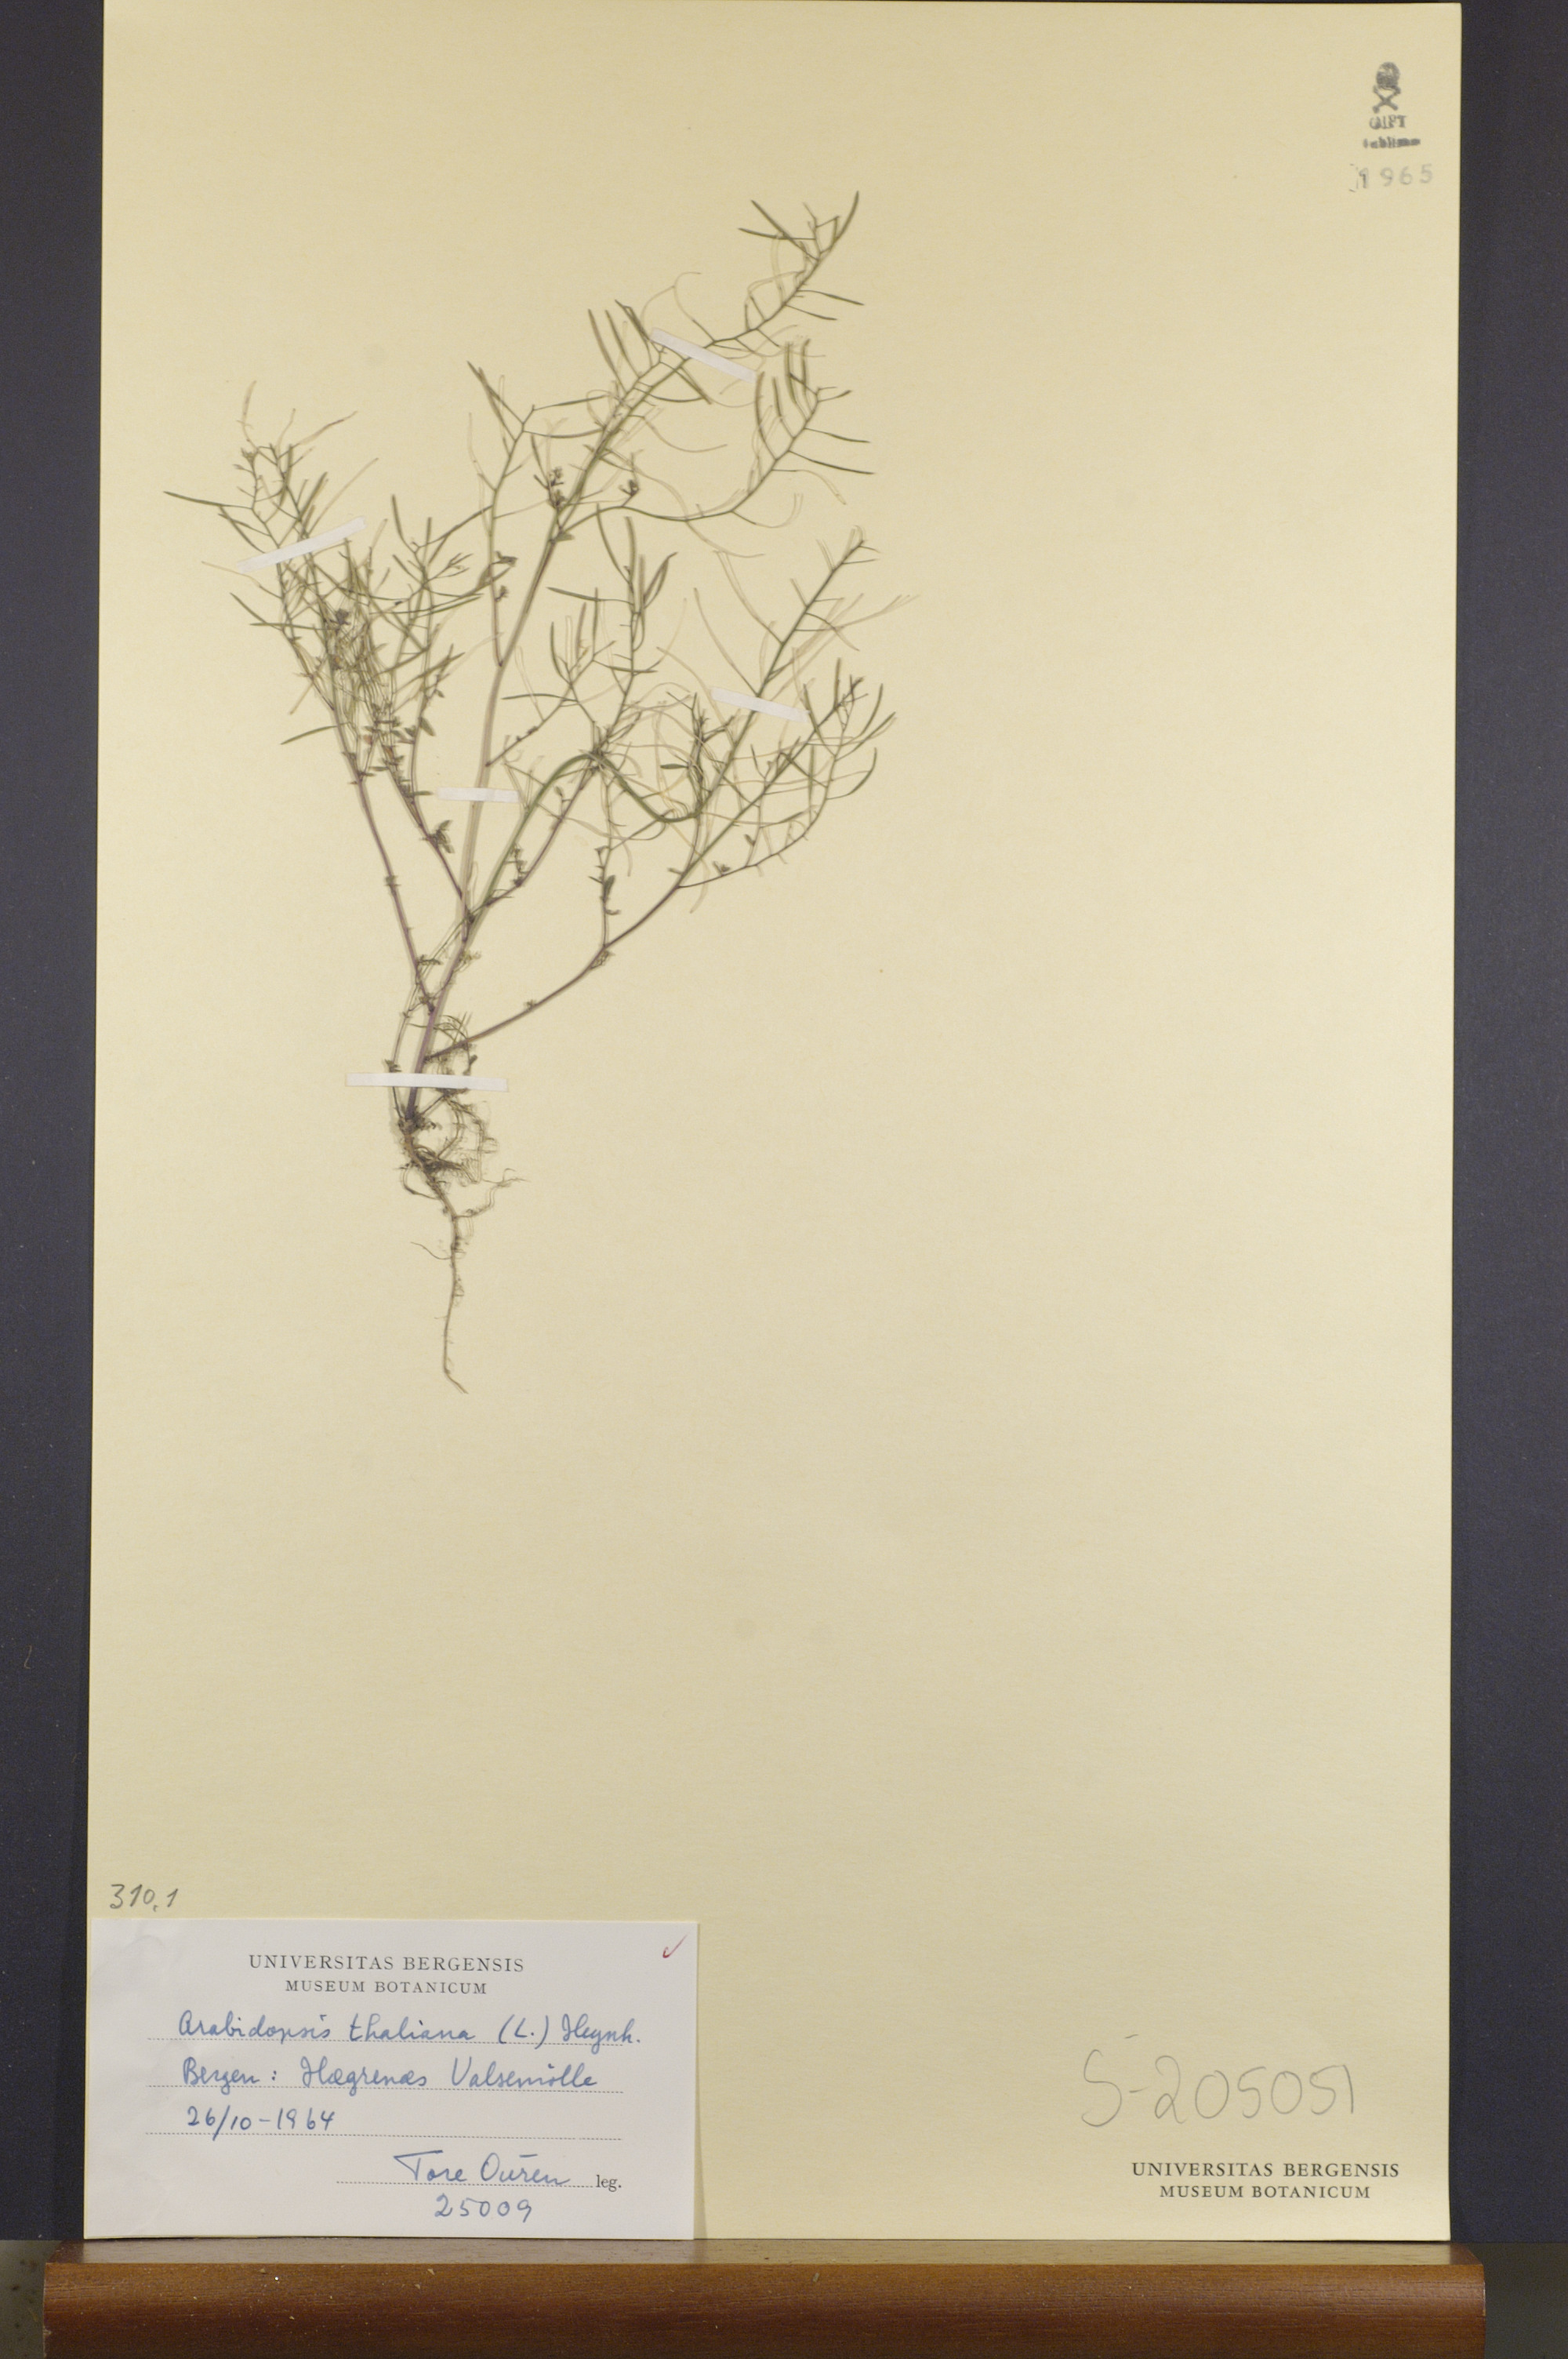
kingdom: Plantae
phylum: Tracheophyta
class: Magnoliopsida
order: Brassicales
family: Brassicaceae
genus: Arabidopsis
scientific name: Arabidopsis thaliana
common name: Thale cress
